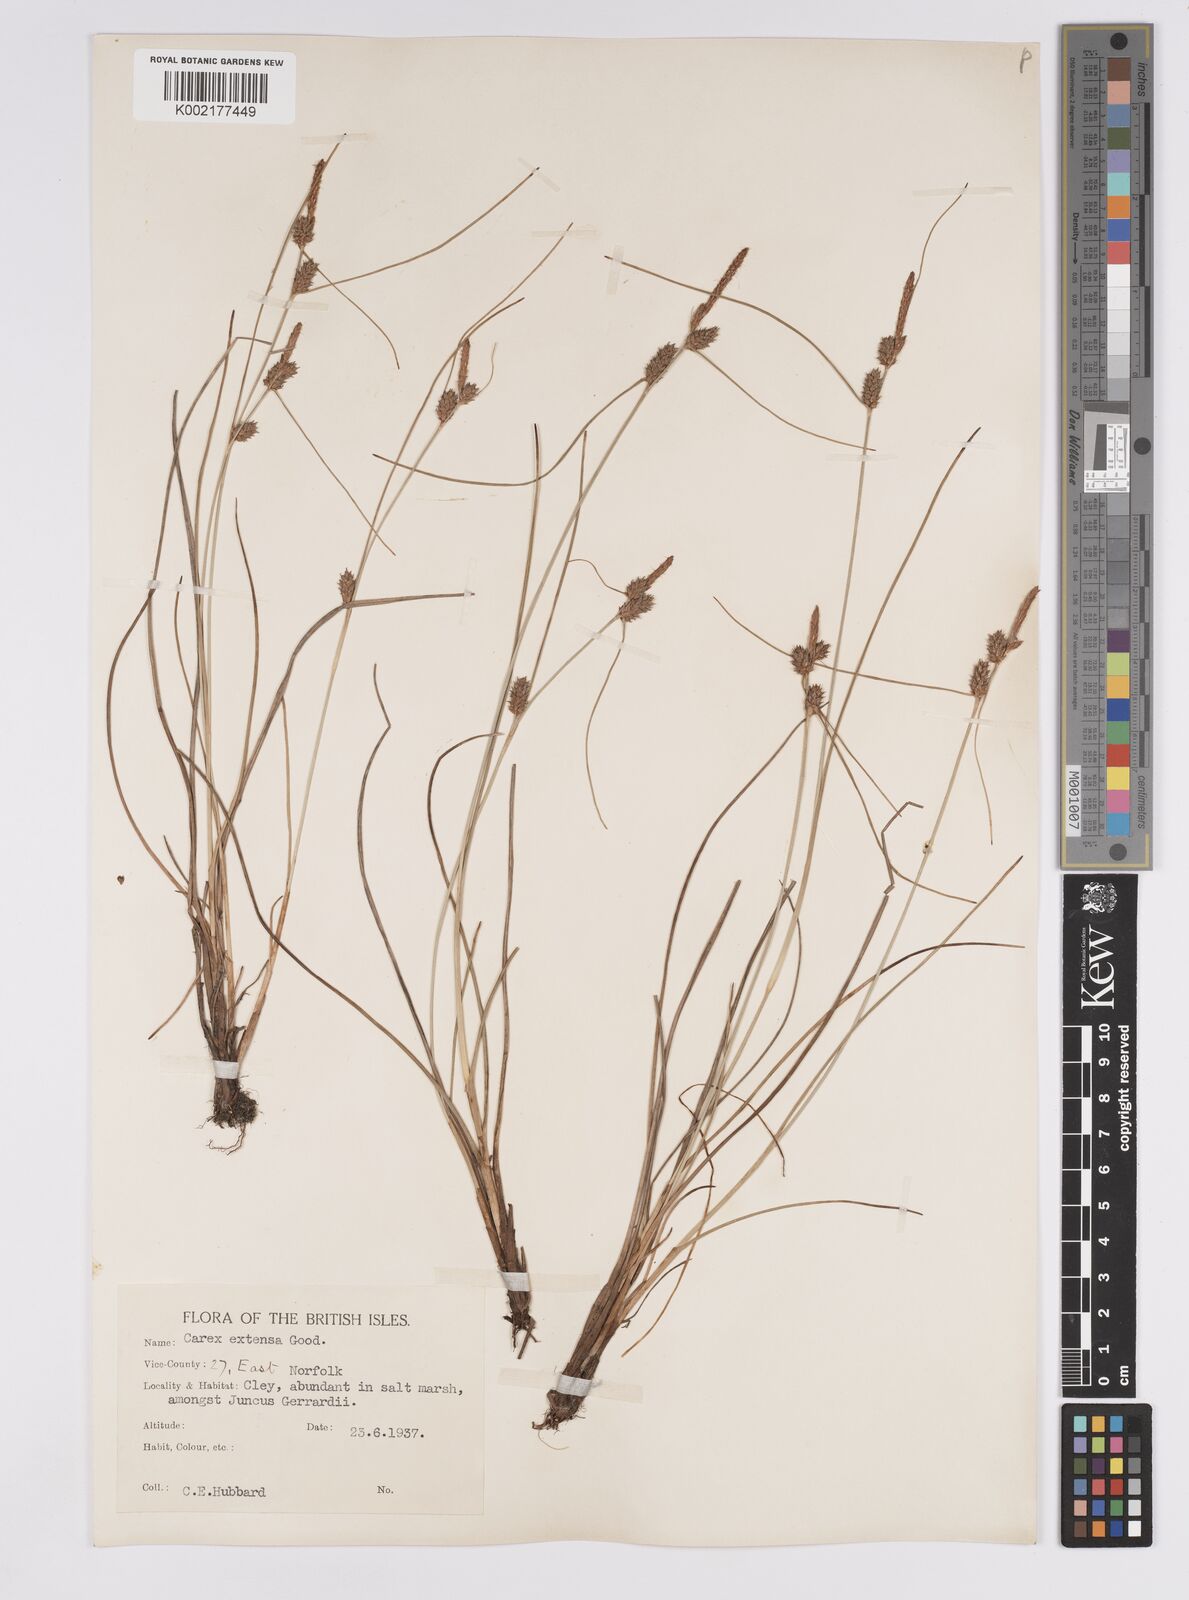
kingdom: Plantae
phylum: Tracheophyta
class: Liliopsida
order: Poales
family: Cyperaceae
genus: Carex
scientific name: Carex extensa
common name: Long-bracted sedge
